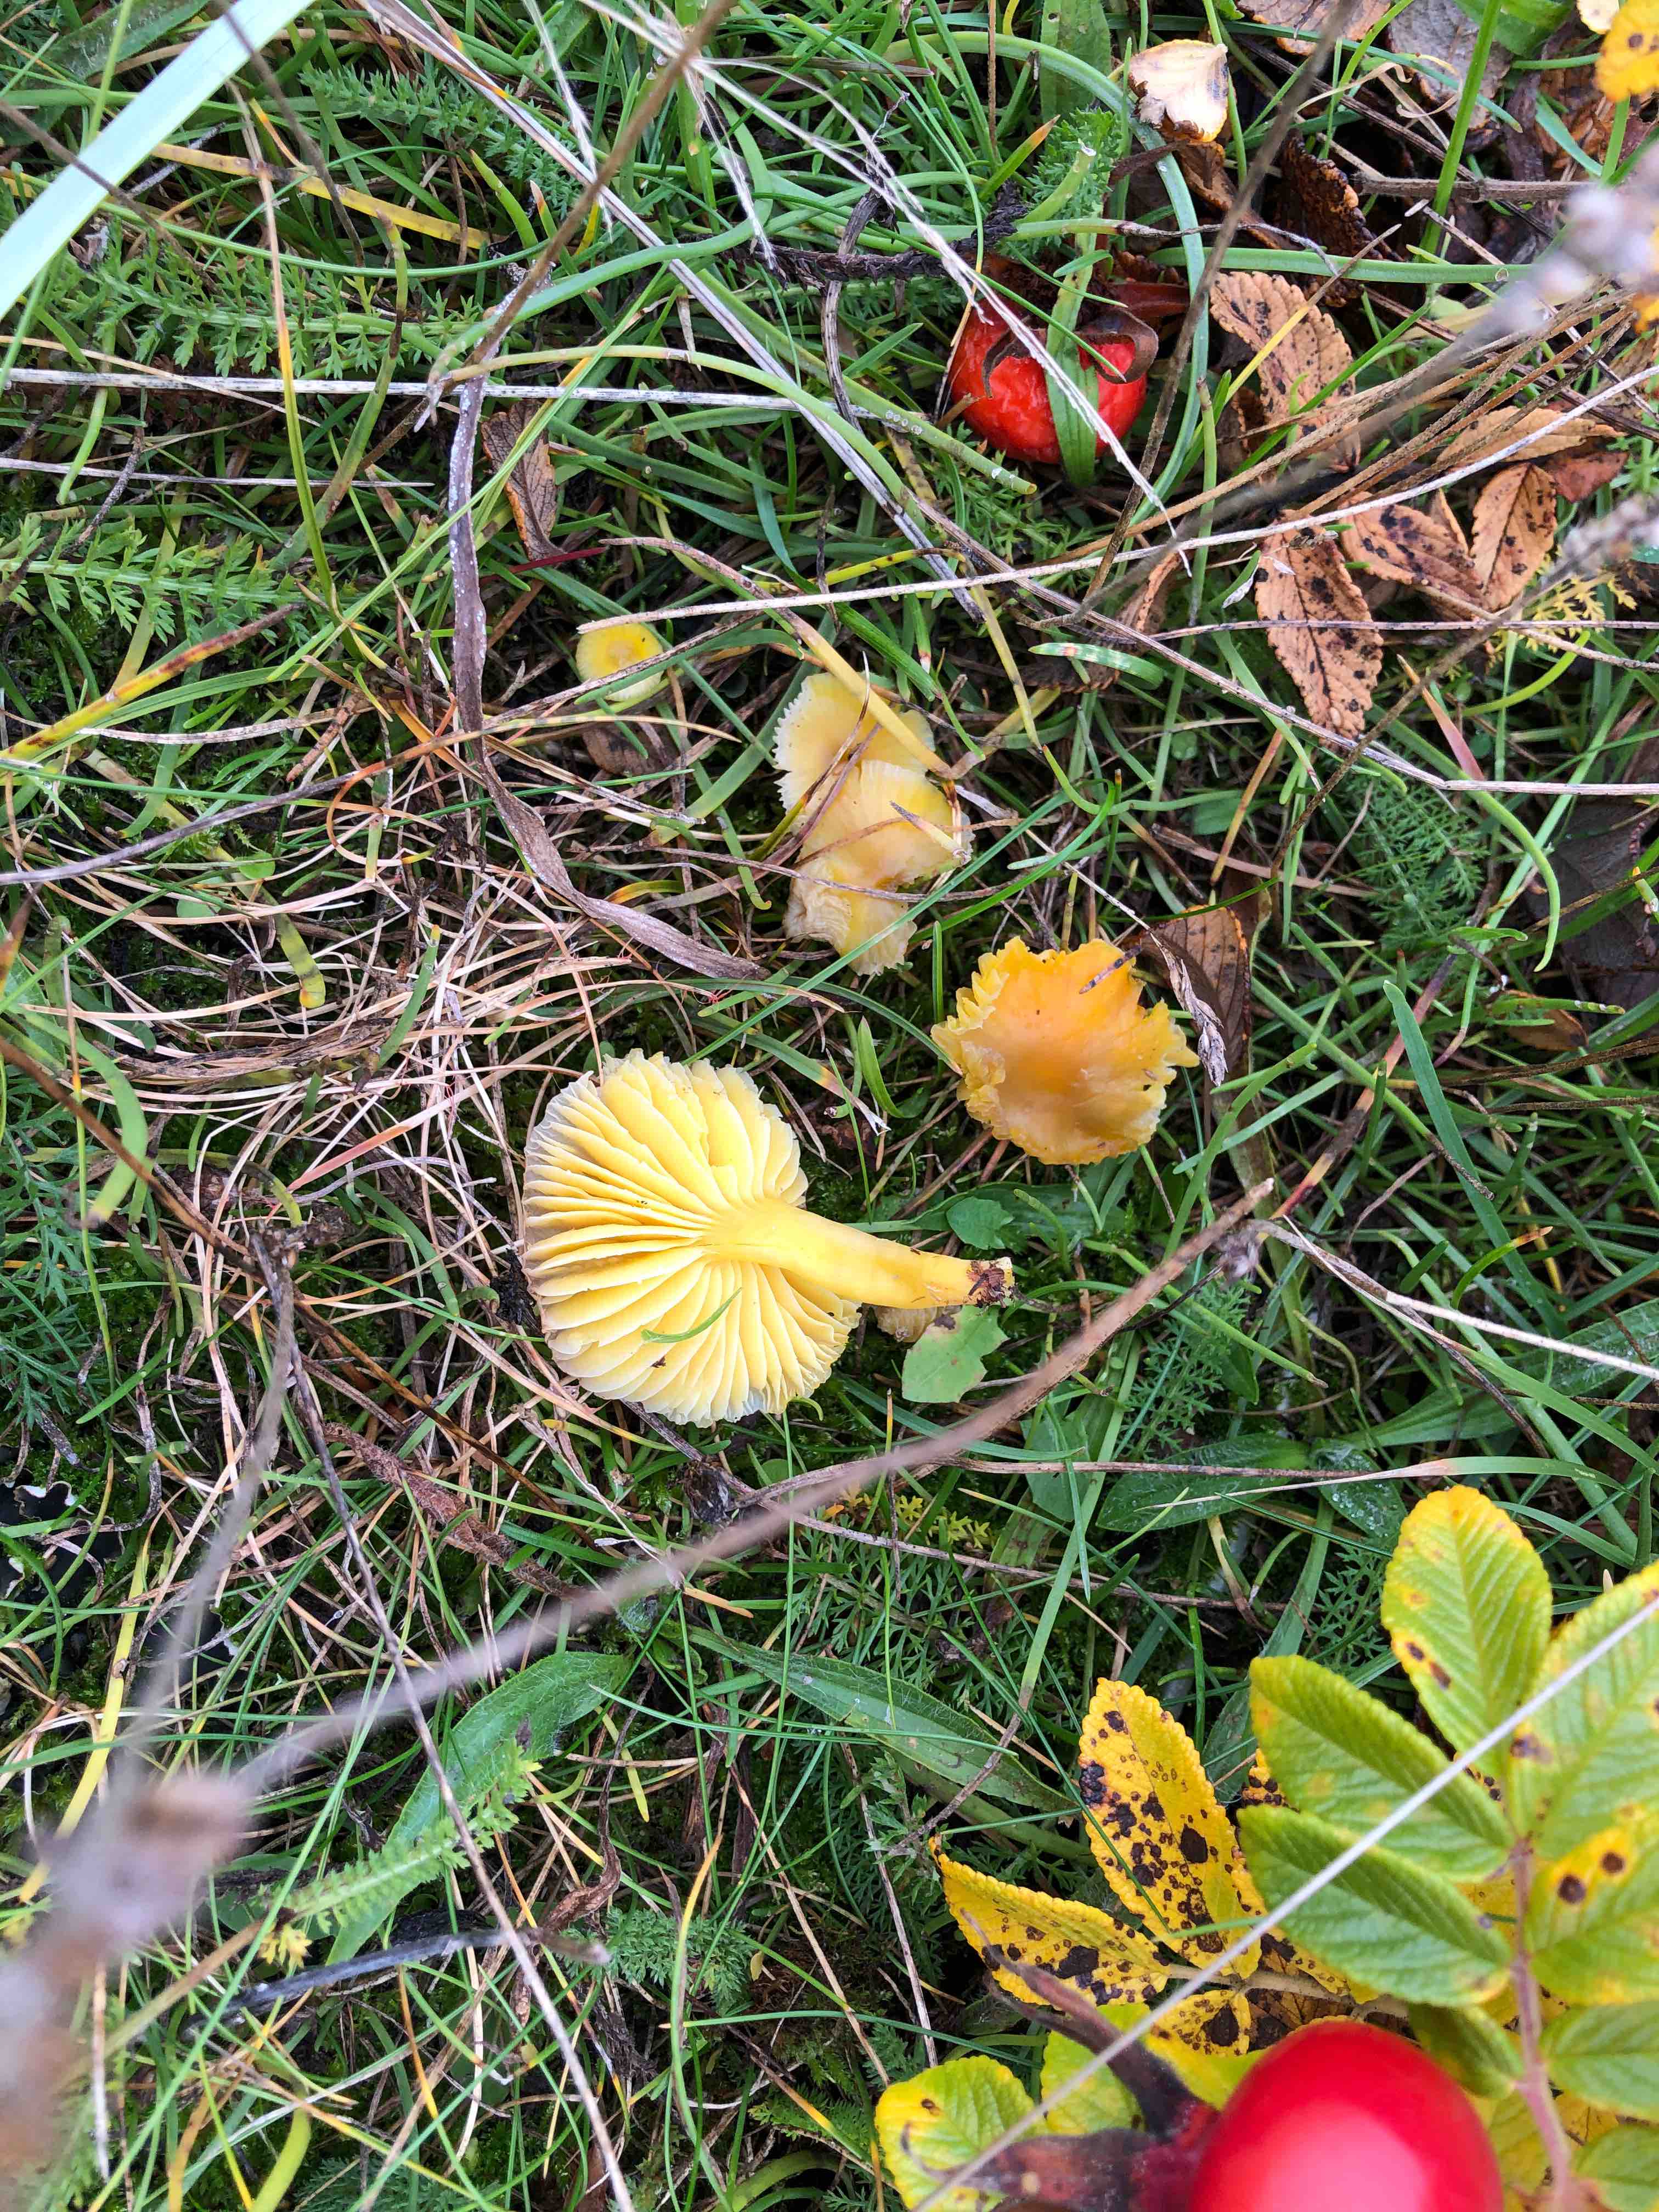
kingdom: Fungi
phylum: Basidiomycota
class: Agaricomycetes
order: Agaricales
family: Hygrophoraceae
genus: Hygrocybe
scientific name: Hygrocybe ceracea
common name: voksgul vokshat
